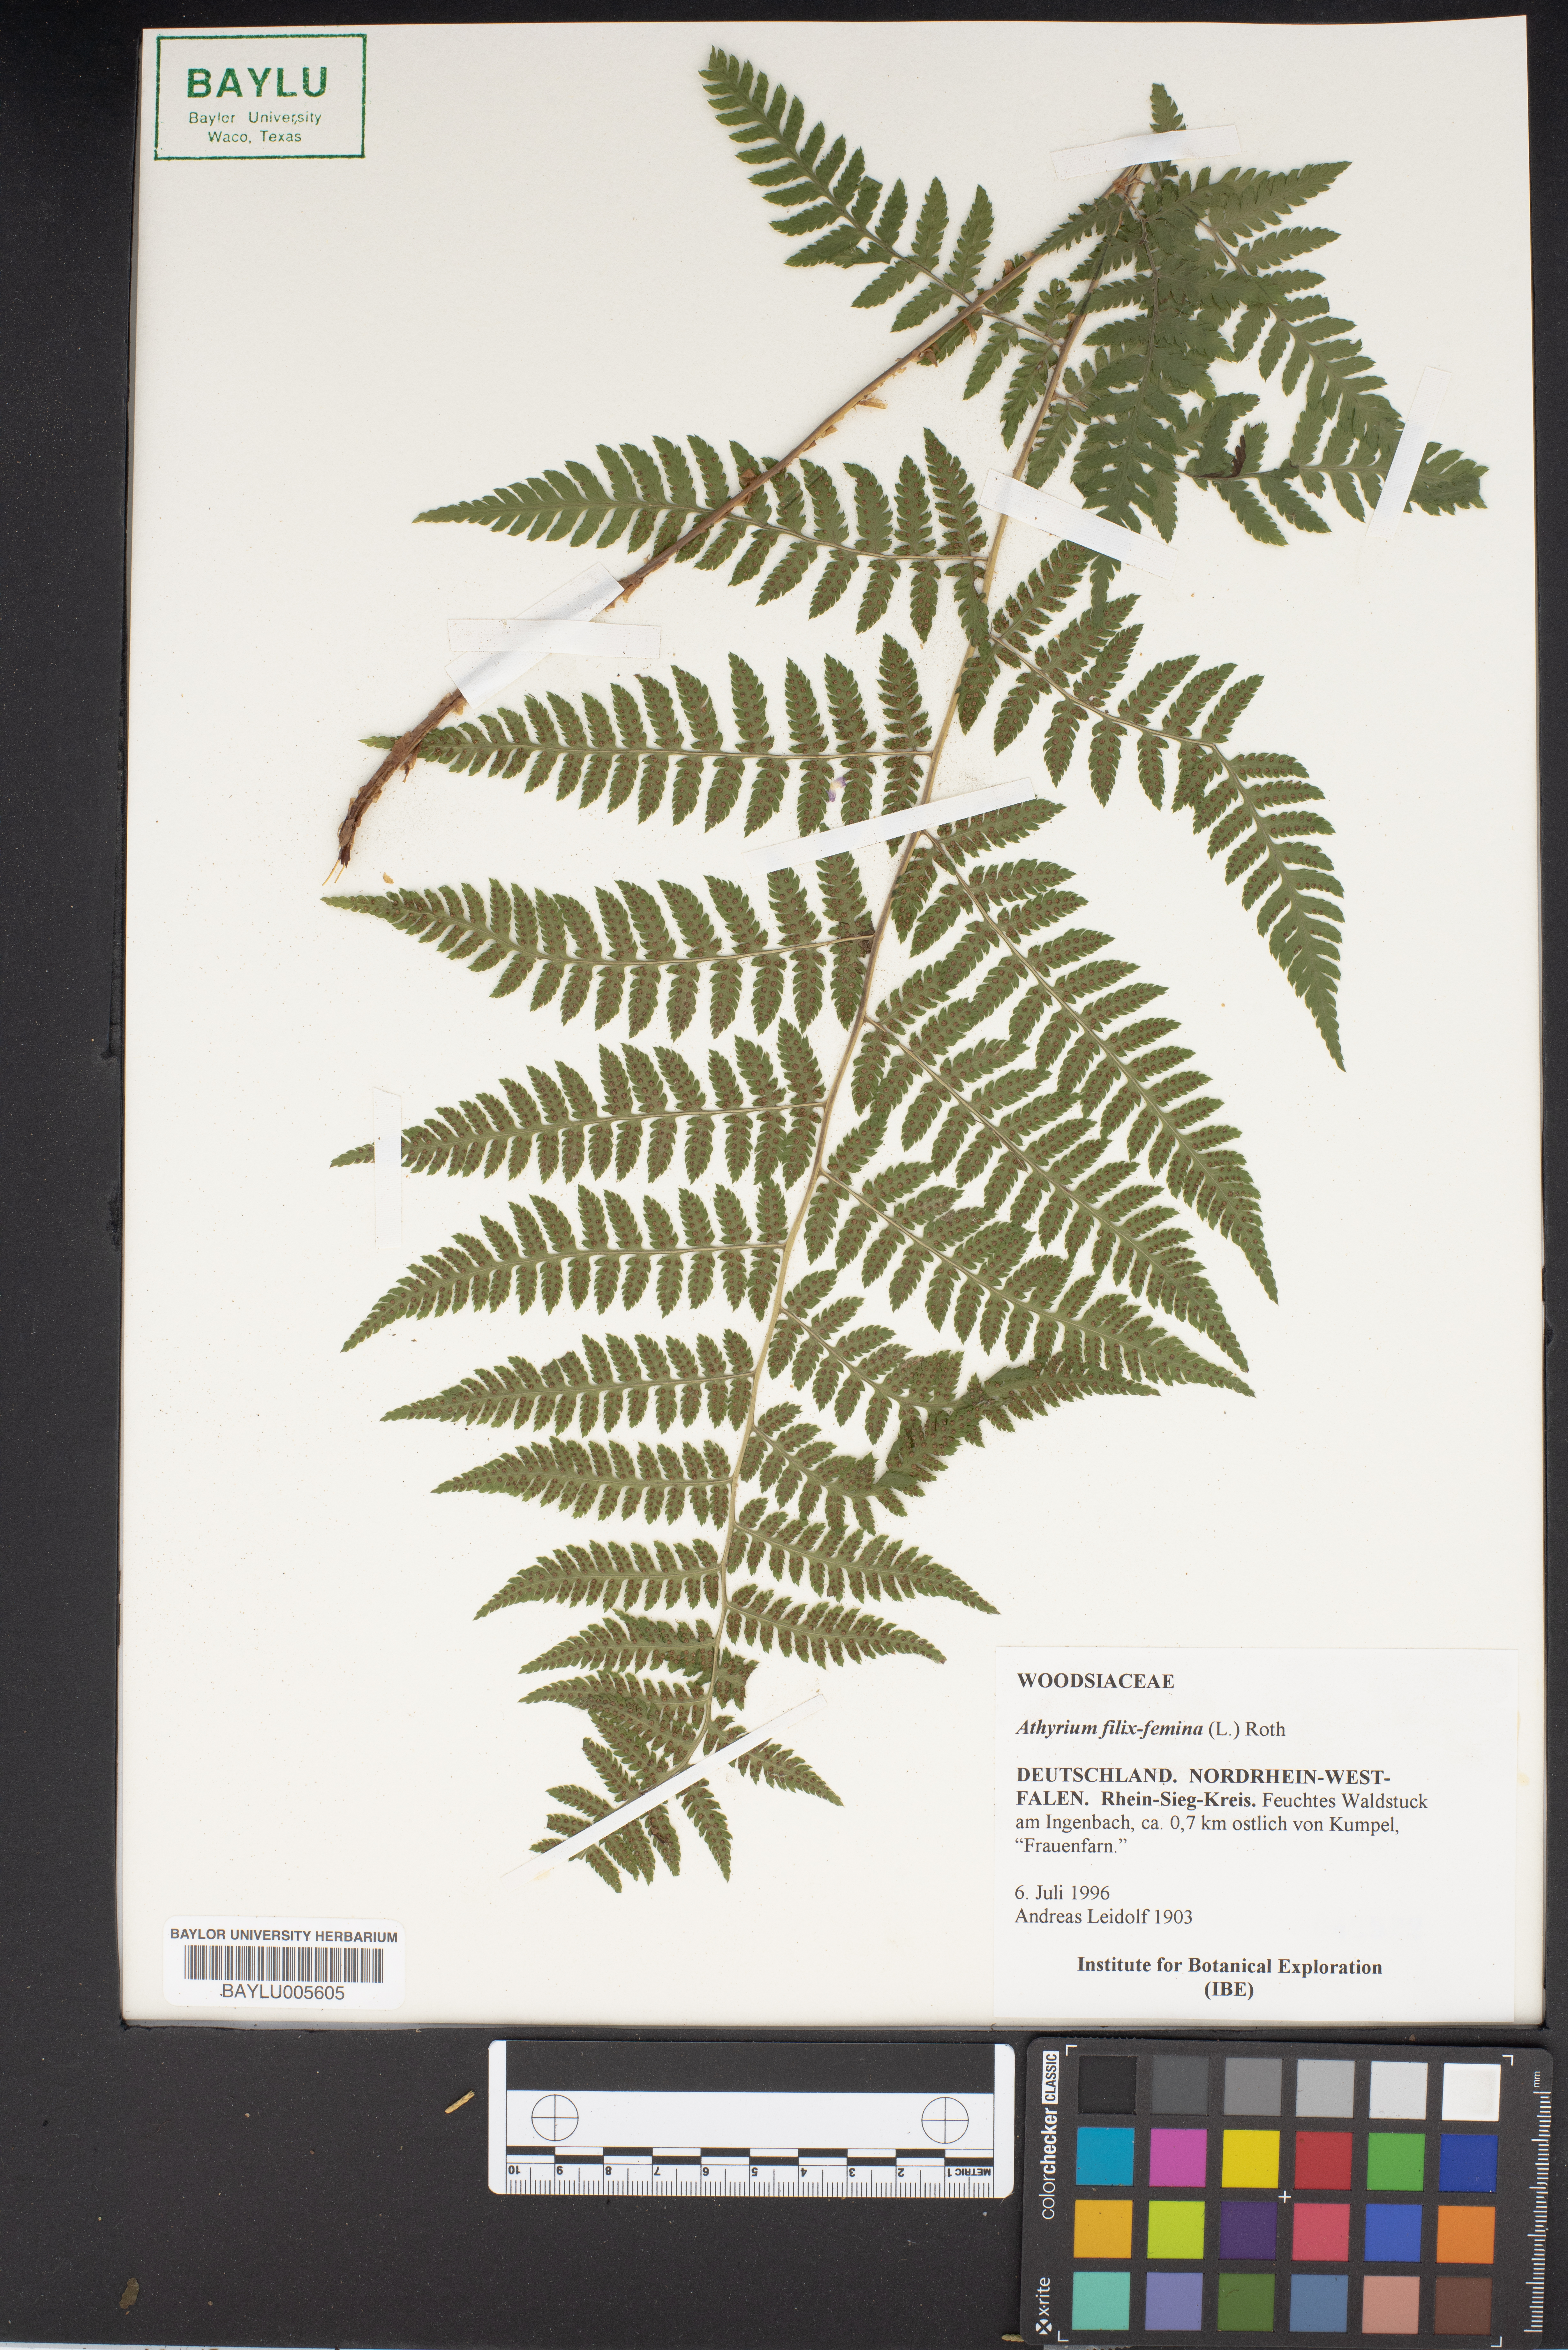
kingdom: Plantae
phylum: Tracheophyta
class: Polypodiopsida
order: Polypodiales
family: Athyriaceae
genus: Athyrium
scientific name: Athyrium filix-femina
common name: Lady fern
